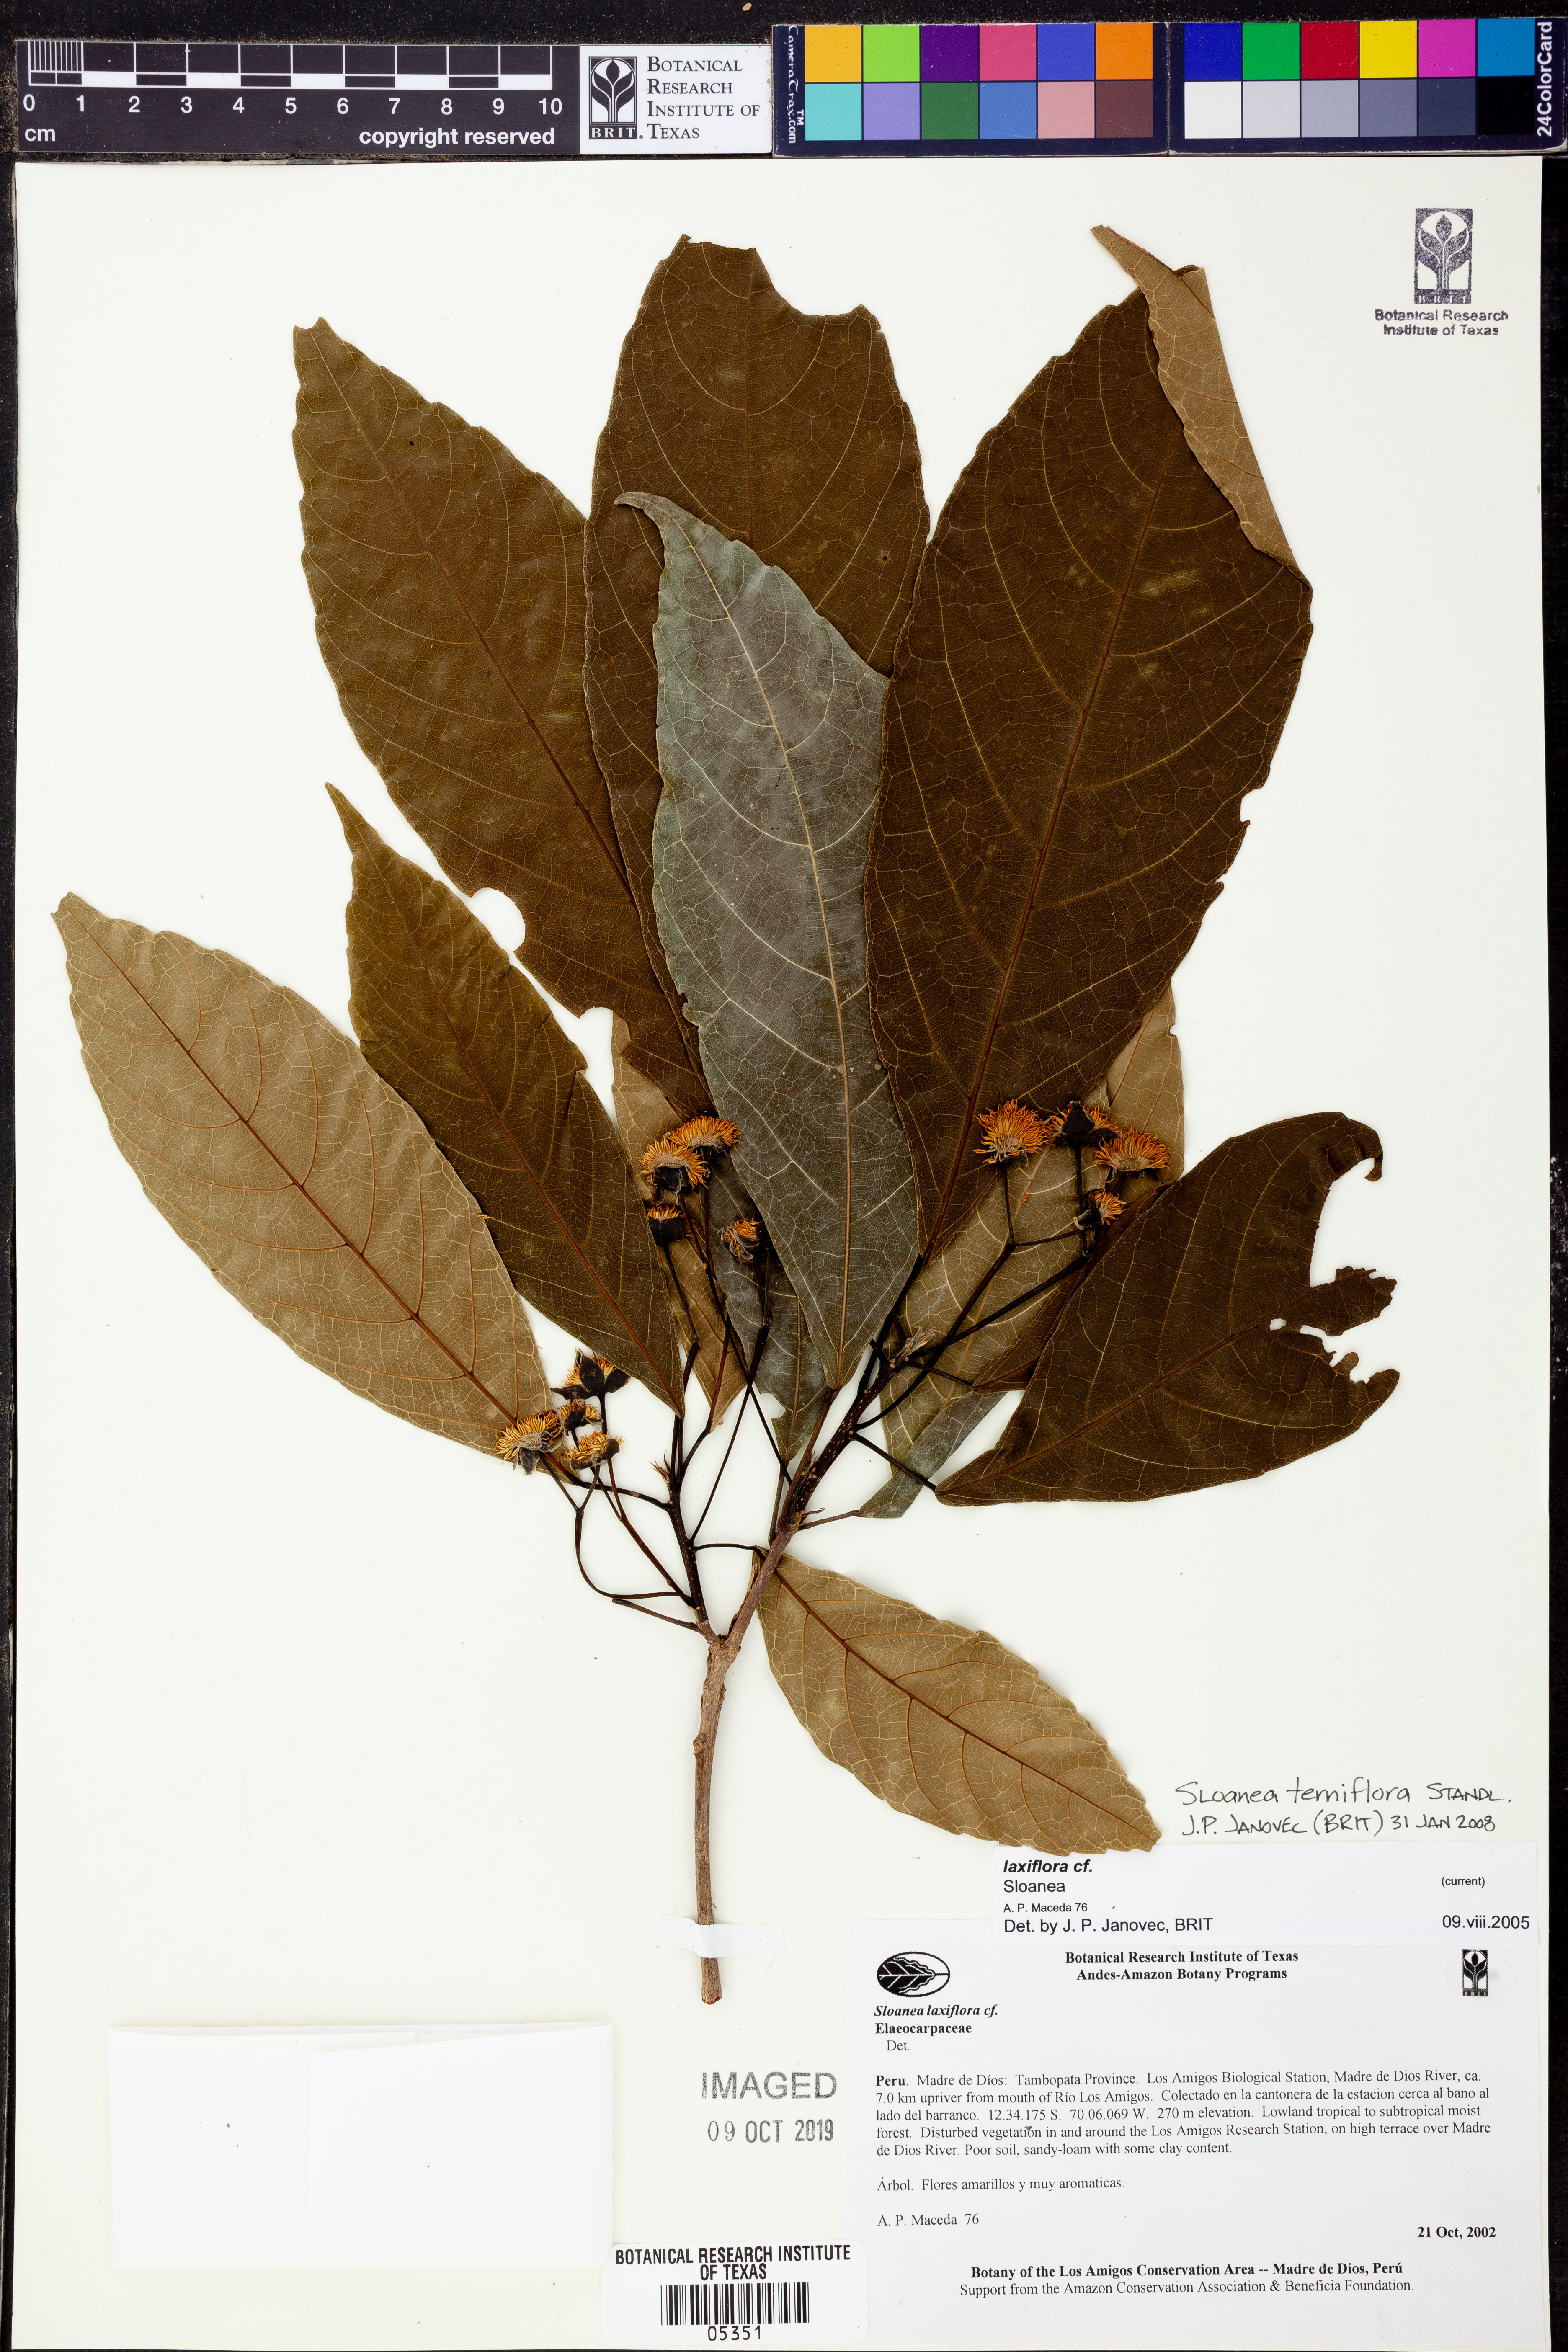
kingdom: Plantae
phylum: Tracheophyta
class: Magnoliopsida
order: Oxalidales
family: Elaeocarpaceae
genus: Sloanea
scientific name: Sloanea
